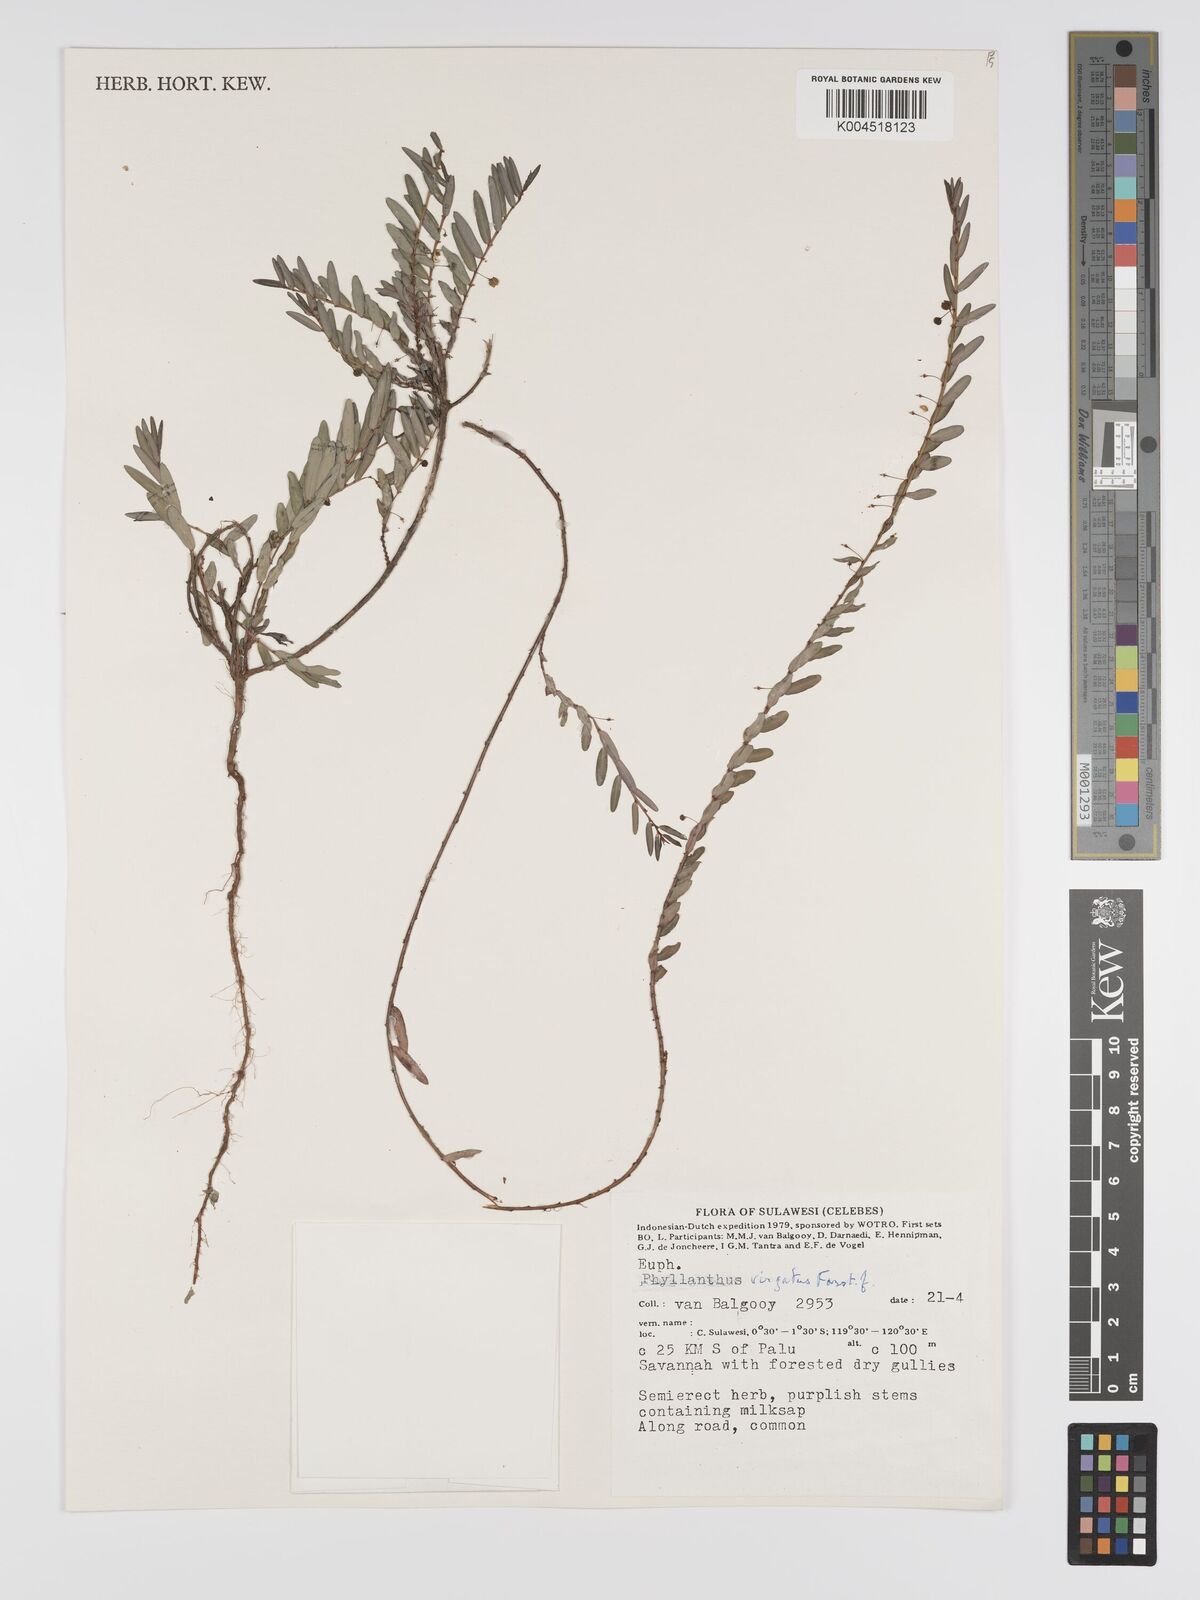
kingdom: Plantae
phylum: Tracheophyta
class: Magnoliopsida
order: Malpighiales
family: Phyllanthaceae
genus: Phyllanthus
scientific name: Phyllanthus virgatus
